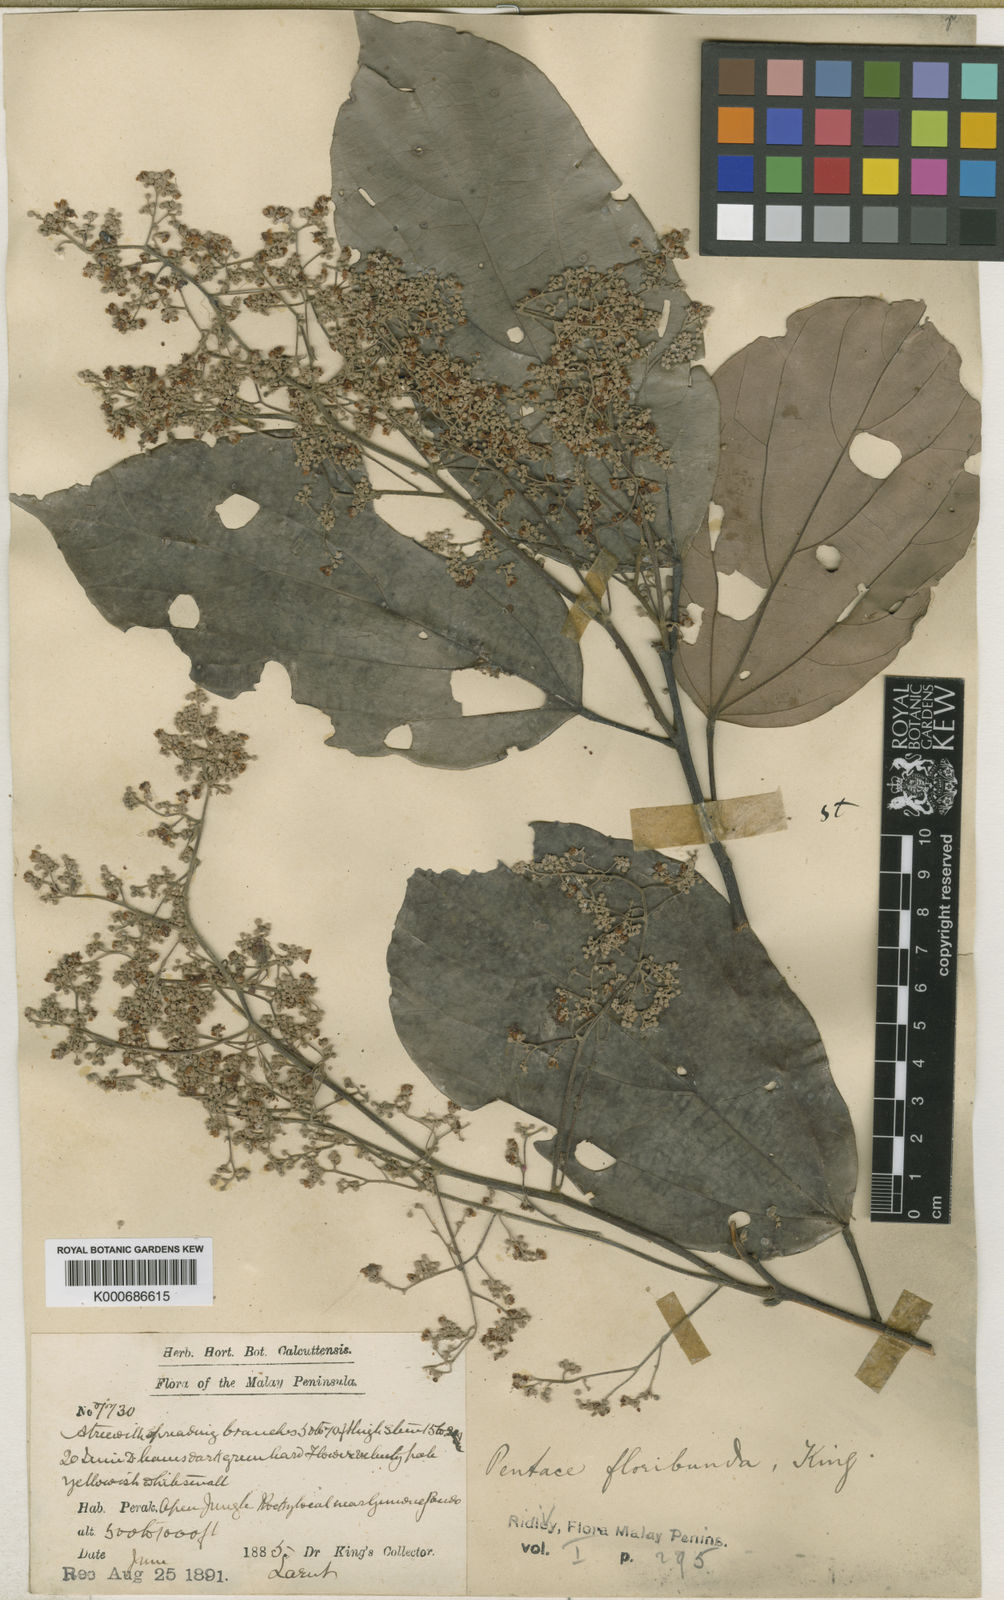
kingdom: Plantae
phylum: Tracheophyta
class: Magnoliopsida
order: Malvales
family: Malvaceae
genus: Pentace
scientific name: Pentace floribunda
